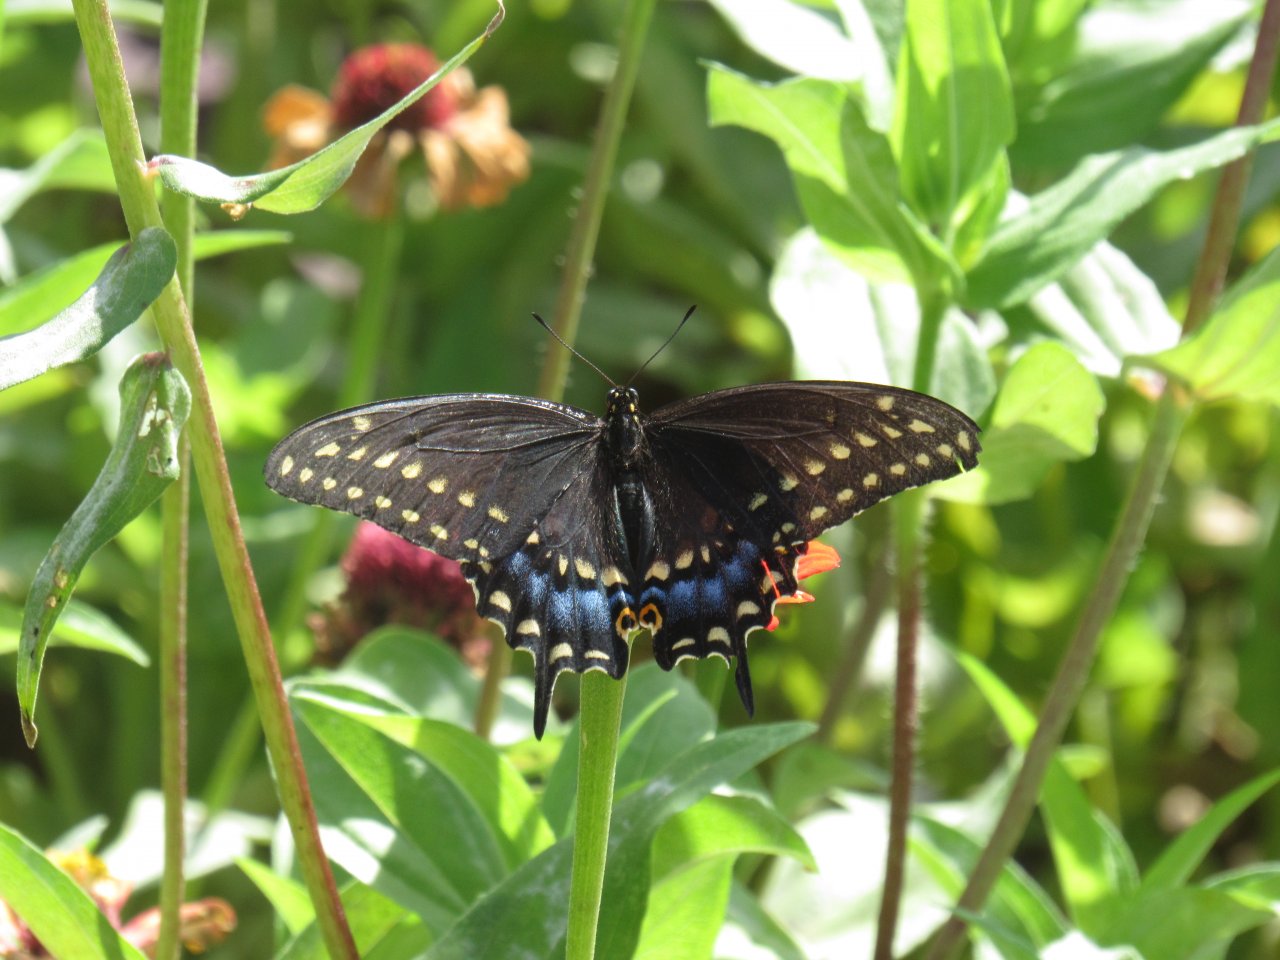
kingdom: Animalia
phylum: Arthropoda
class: Insecta
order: Lepidoptera
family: Papilionidae
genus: Papilio
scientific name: Papilio polyxenes
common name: Black Swallowtail
